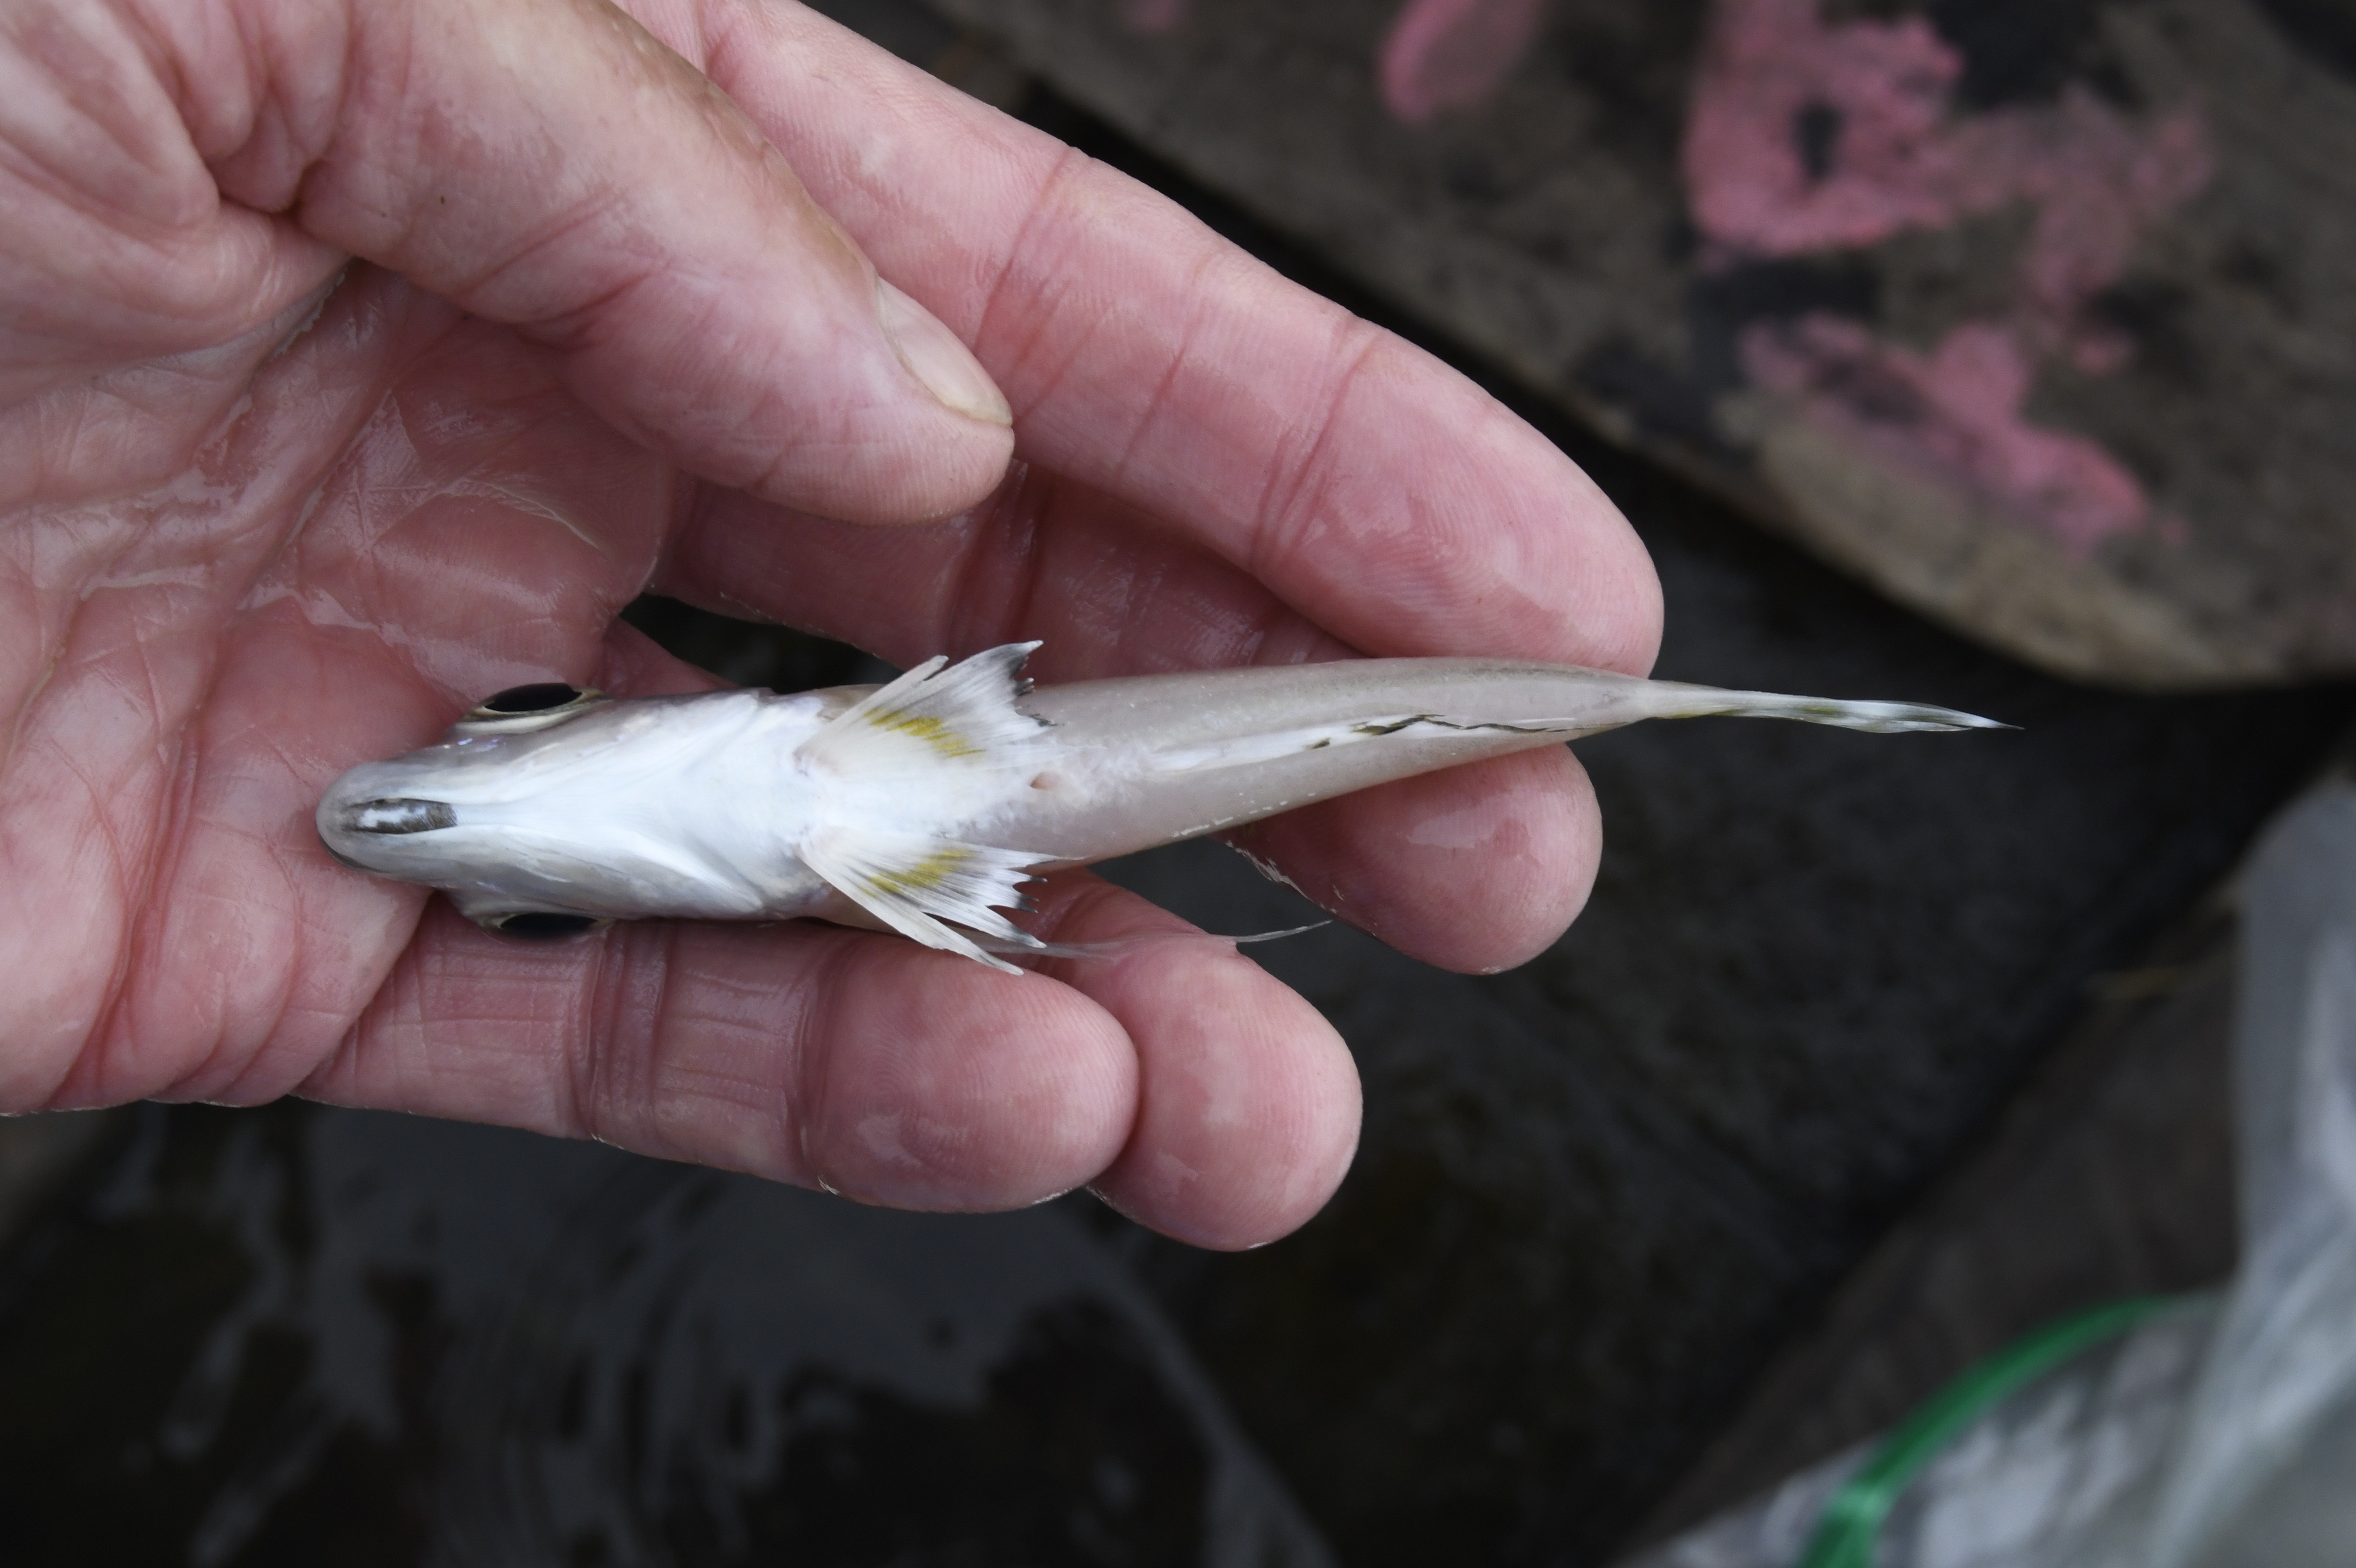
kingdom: Animalia
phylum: Chordata
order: Perciformes
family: Cichlidae
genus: Xenotilapia
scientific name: Xenotilapia caudafasciata
